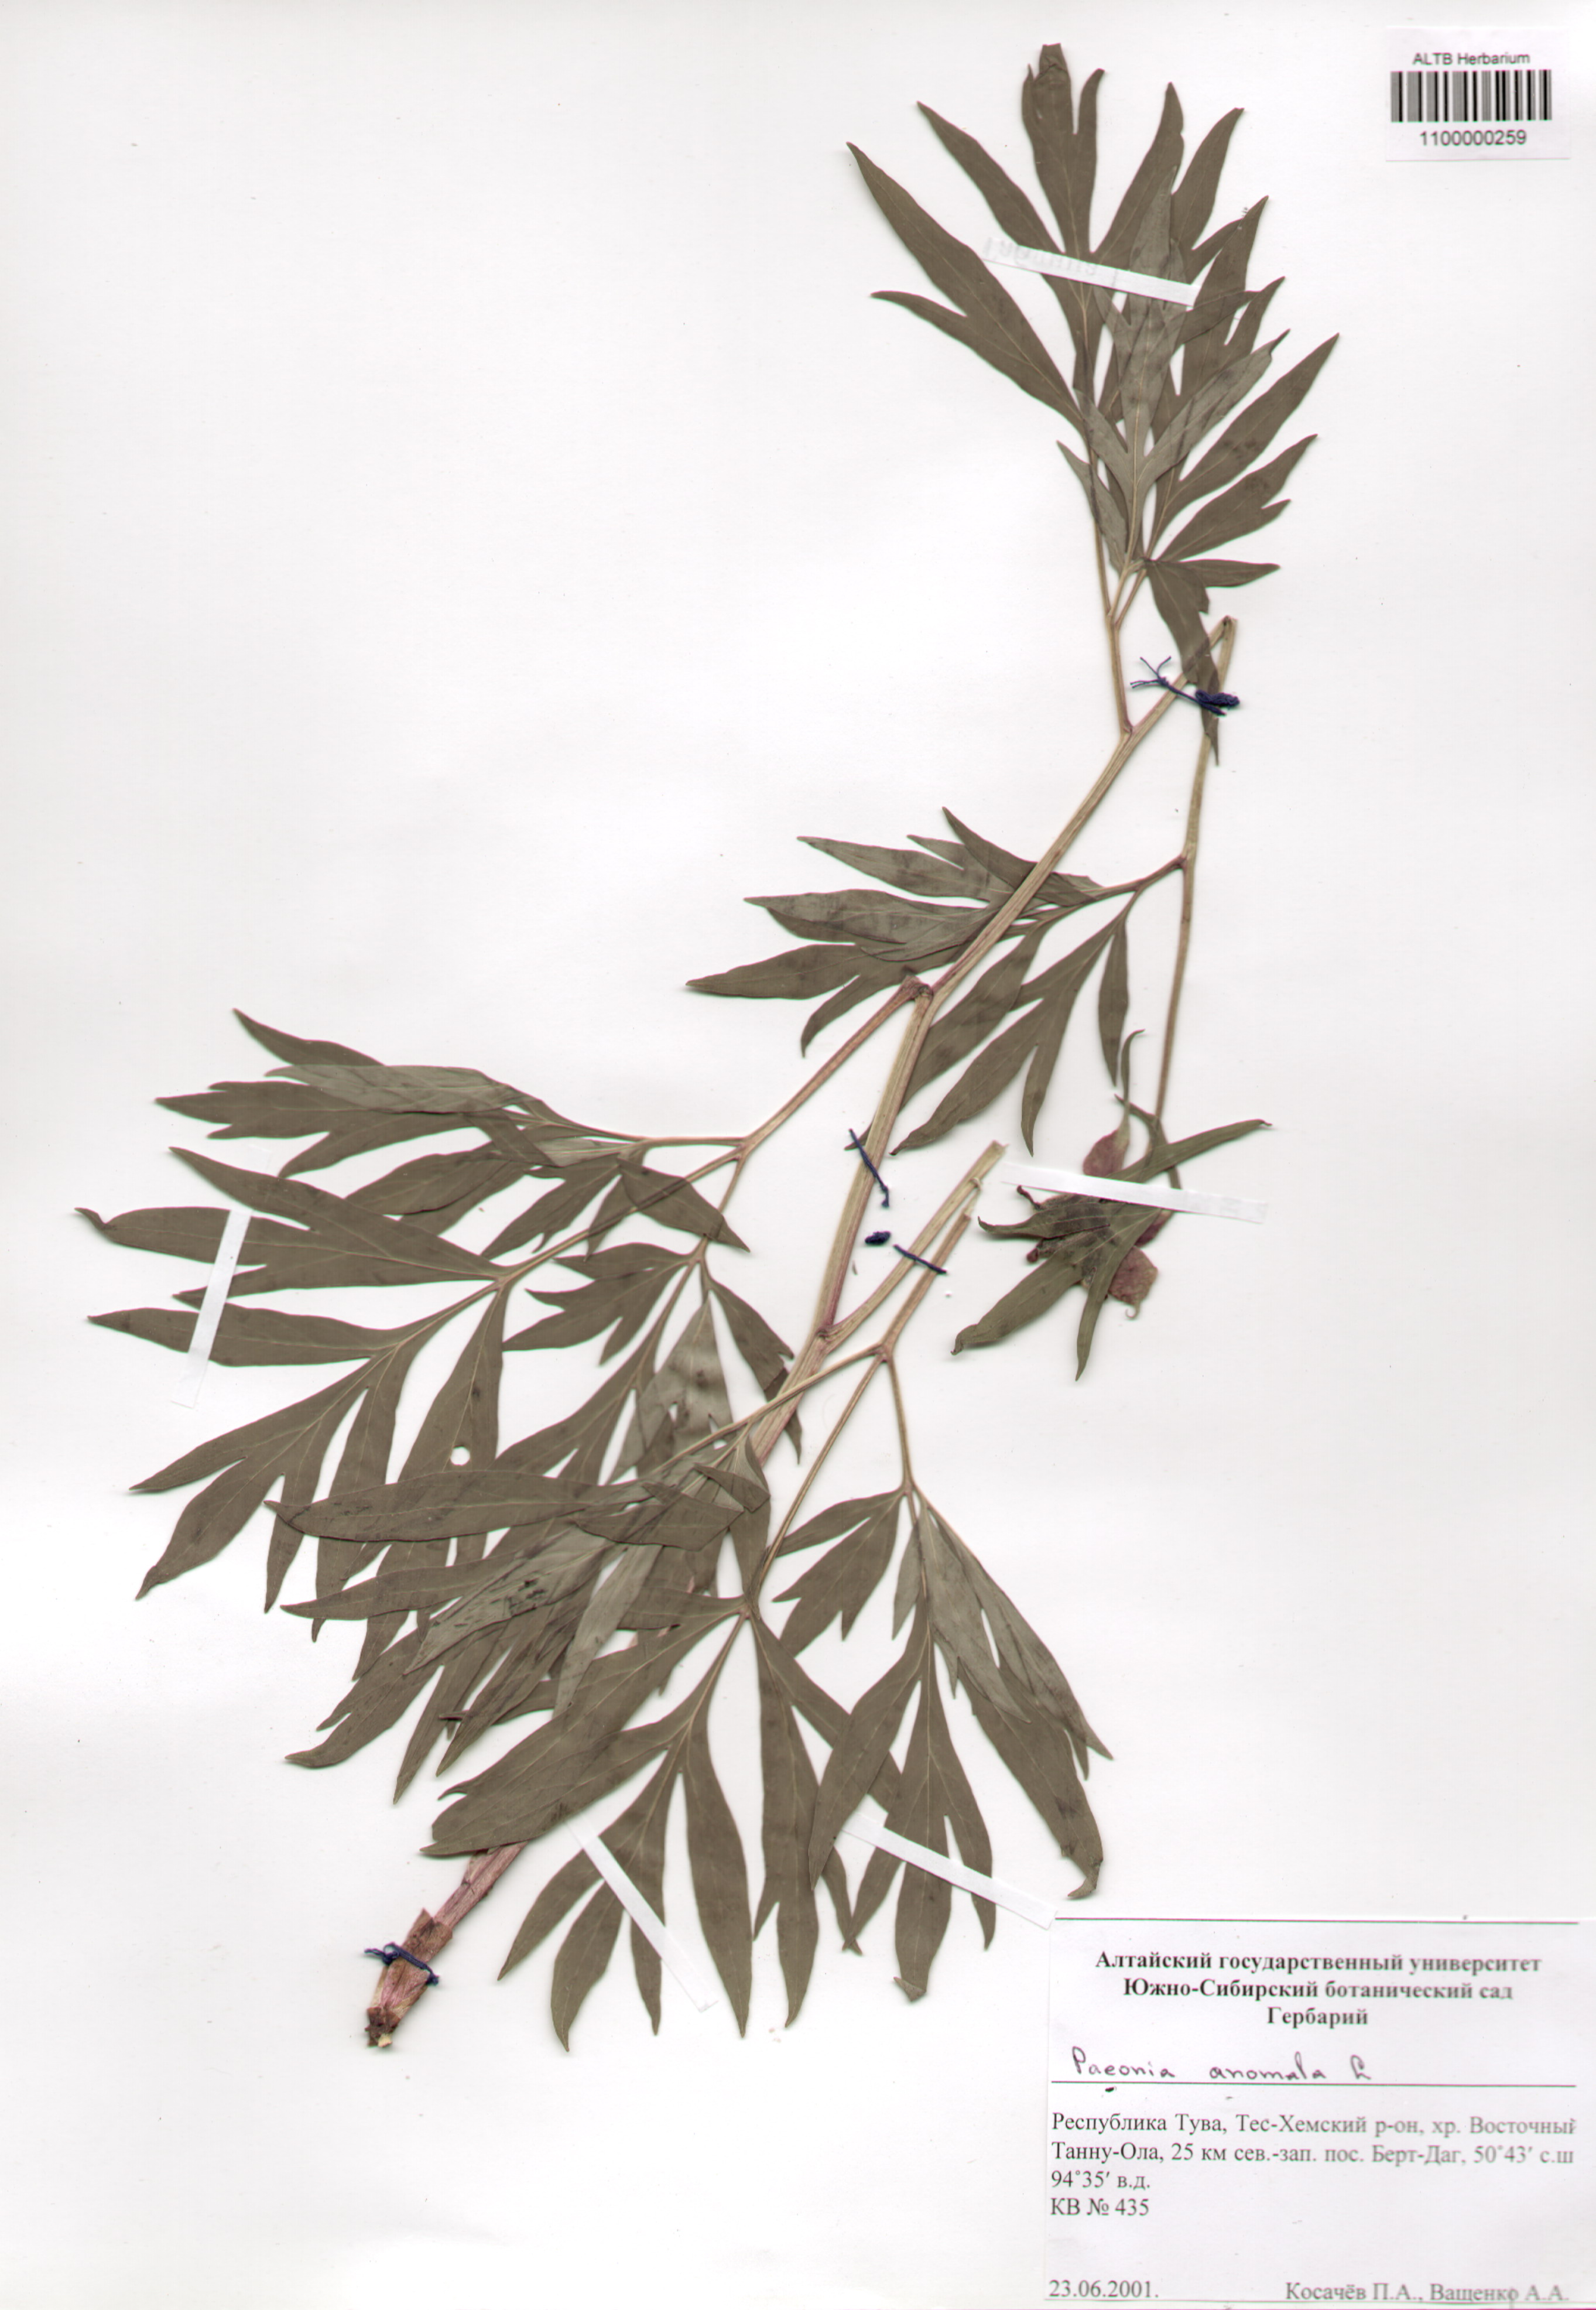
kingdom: Plantae
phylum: Tracheophyta
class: Magnoliopsida
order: Saxifragales
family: Paeoniaceae
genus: Paeonia
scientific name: Paeonia anomala
